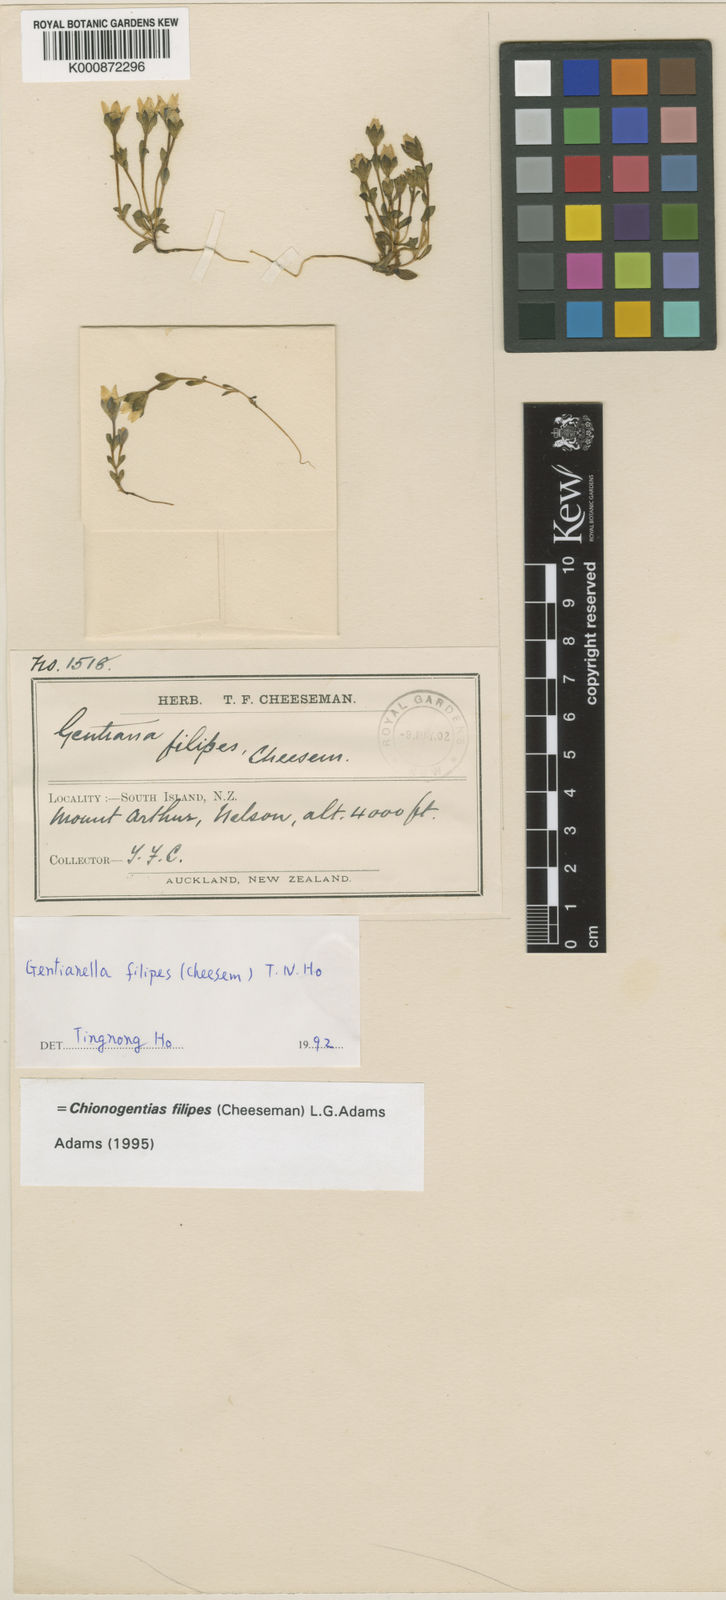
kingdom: Plantae
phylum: Tracheophyta
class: Magnoliopsida
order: Gentianales
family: Gentianaceae
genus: Gentianella
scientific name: Gentianella filipes
